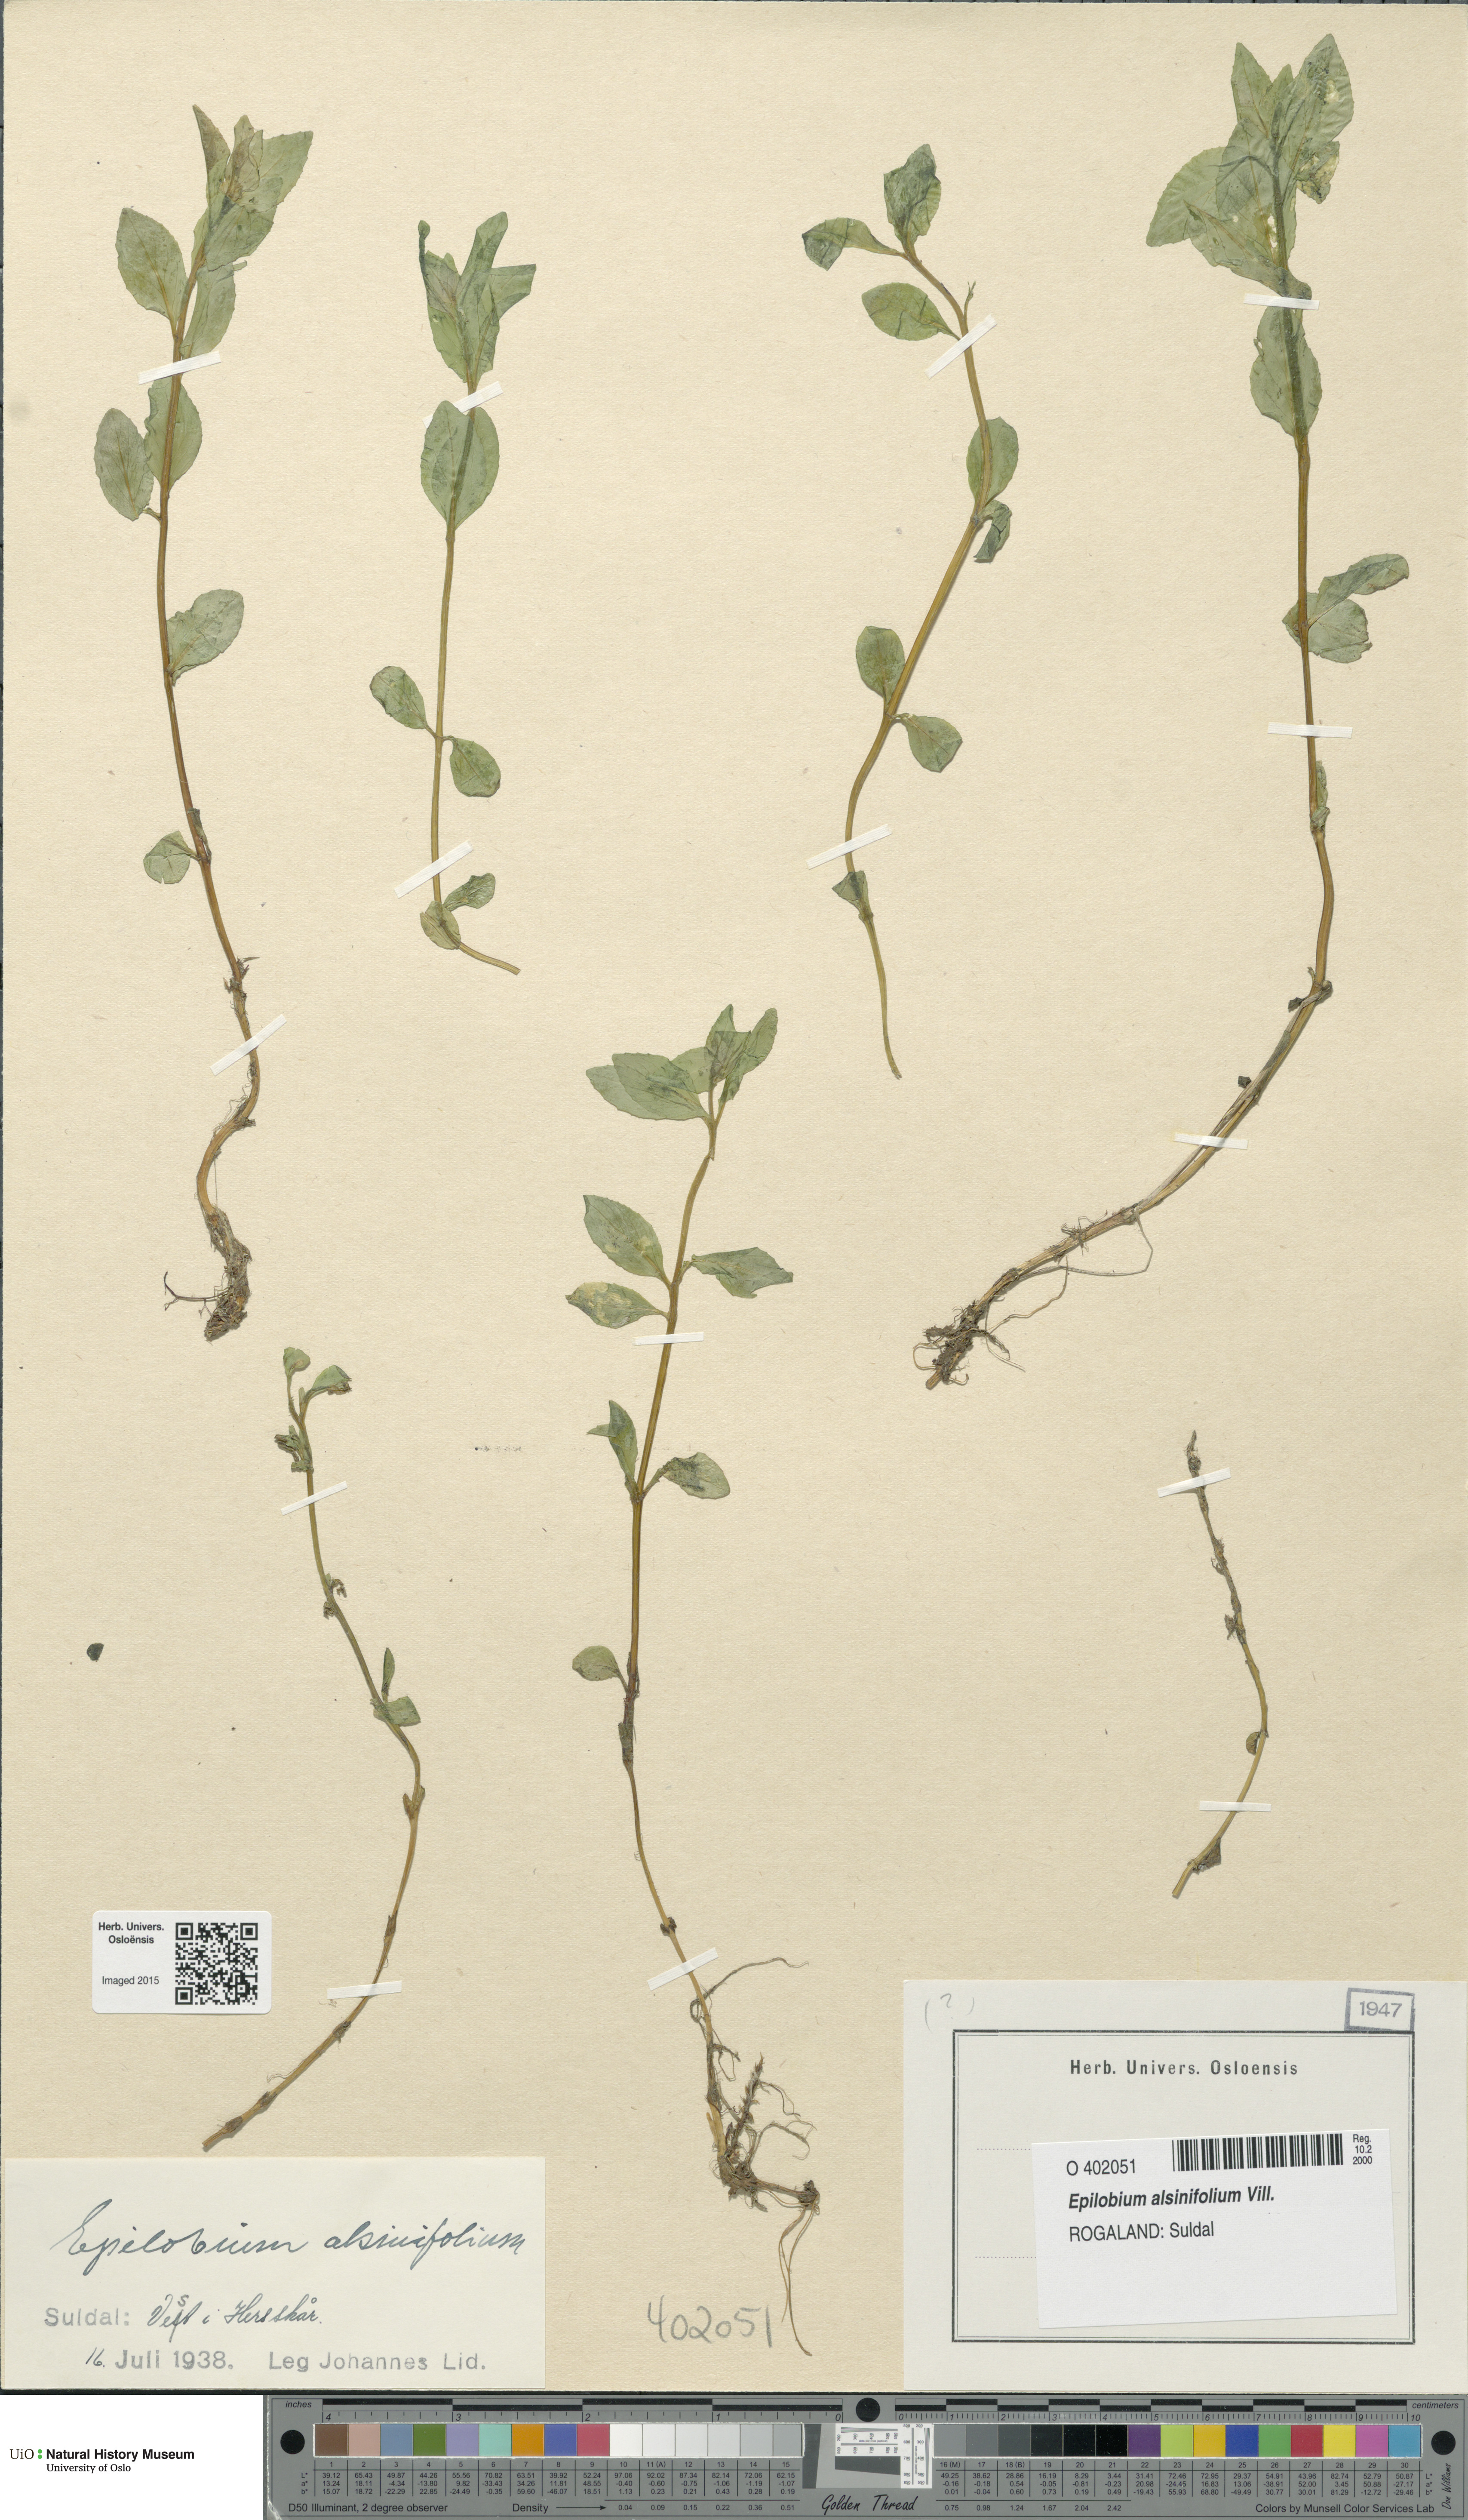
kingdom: Plantae
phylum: Tracheophyta
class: Magnoliopsida
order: Myrtales
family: Onagraceae
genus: Epilobium
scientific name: Epilobium alsinifolium
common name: Chickweed willowherb
